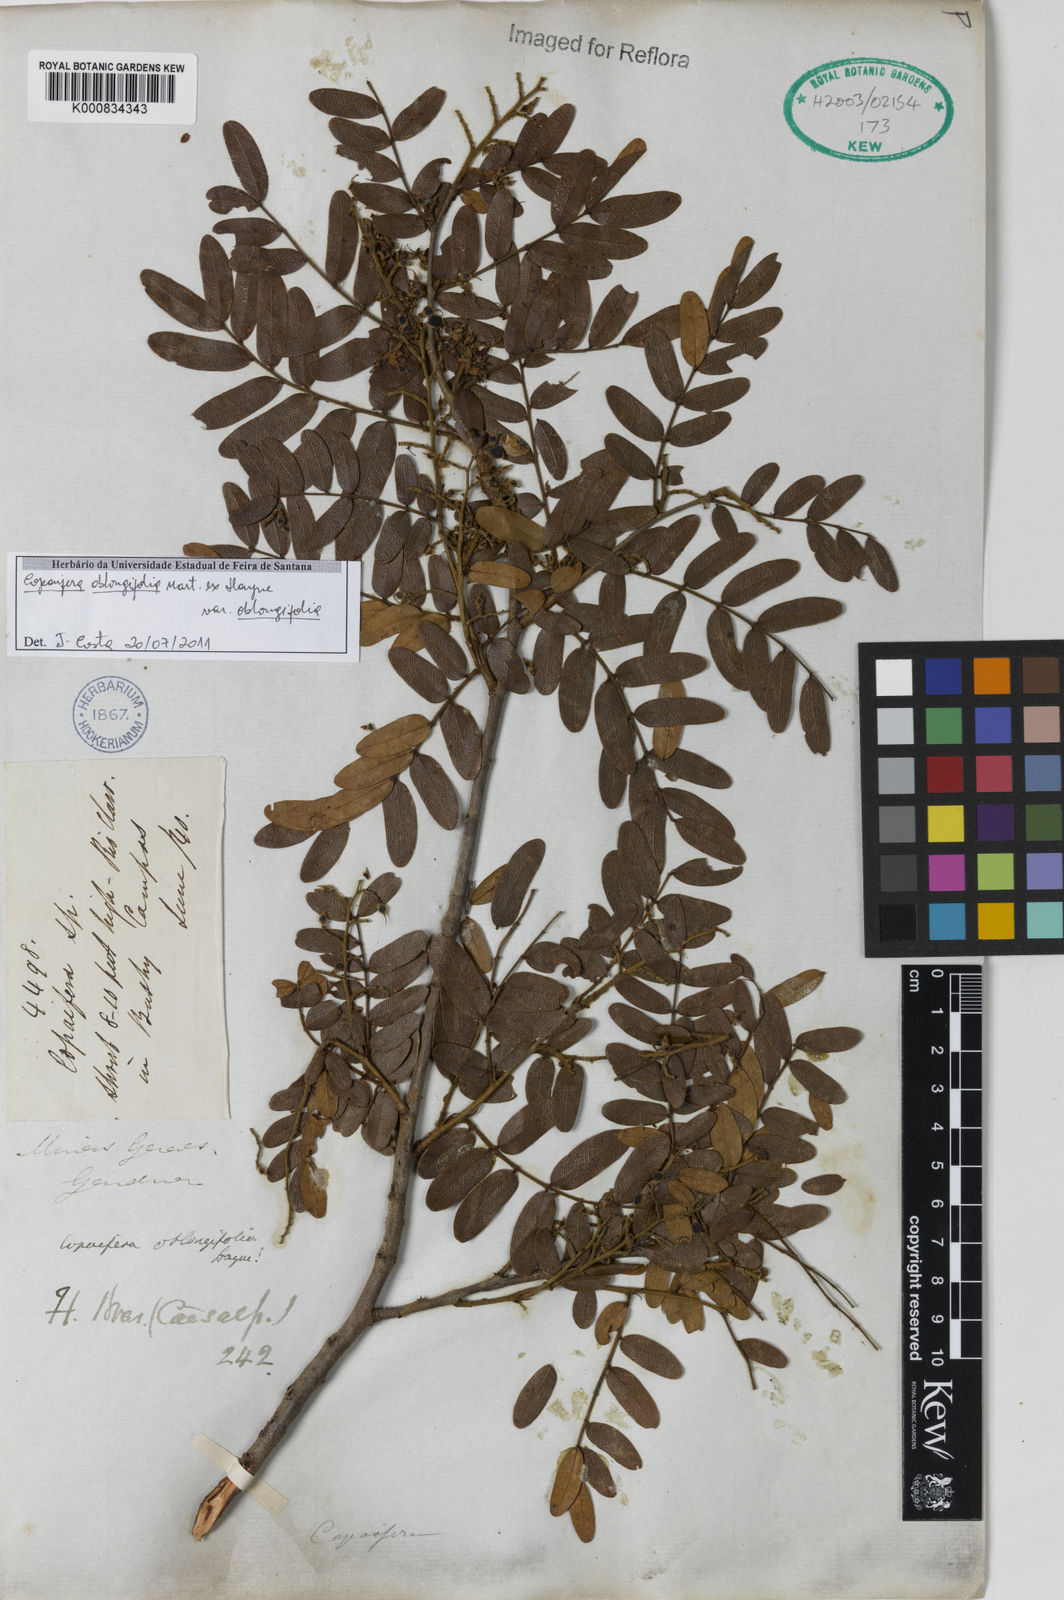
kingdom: Plantae
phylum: Tracheophyta
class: Magnoliopsida
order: Fabales
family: Fabaceae
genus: Copaifera
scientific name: Copaifera
